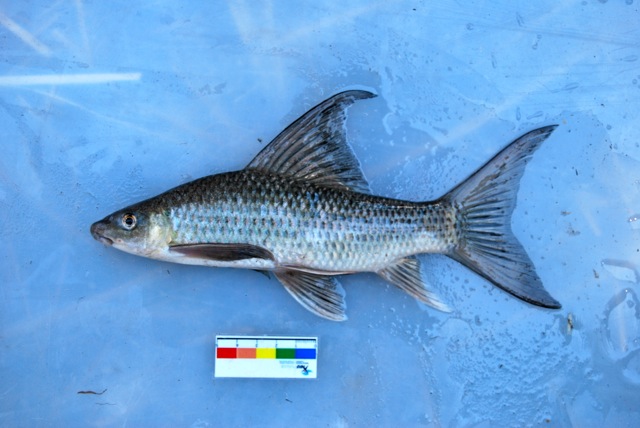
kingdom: Animalia
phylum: Chordata
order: Cypriniformes
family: Cyprinidae
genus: Labeo
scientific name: Labeo lunatus
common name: Upper zambezi labeo
